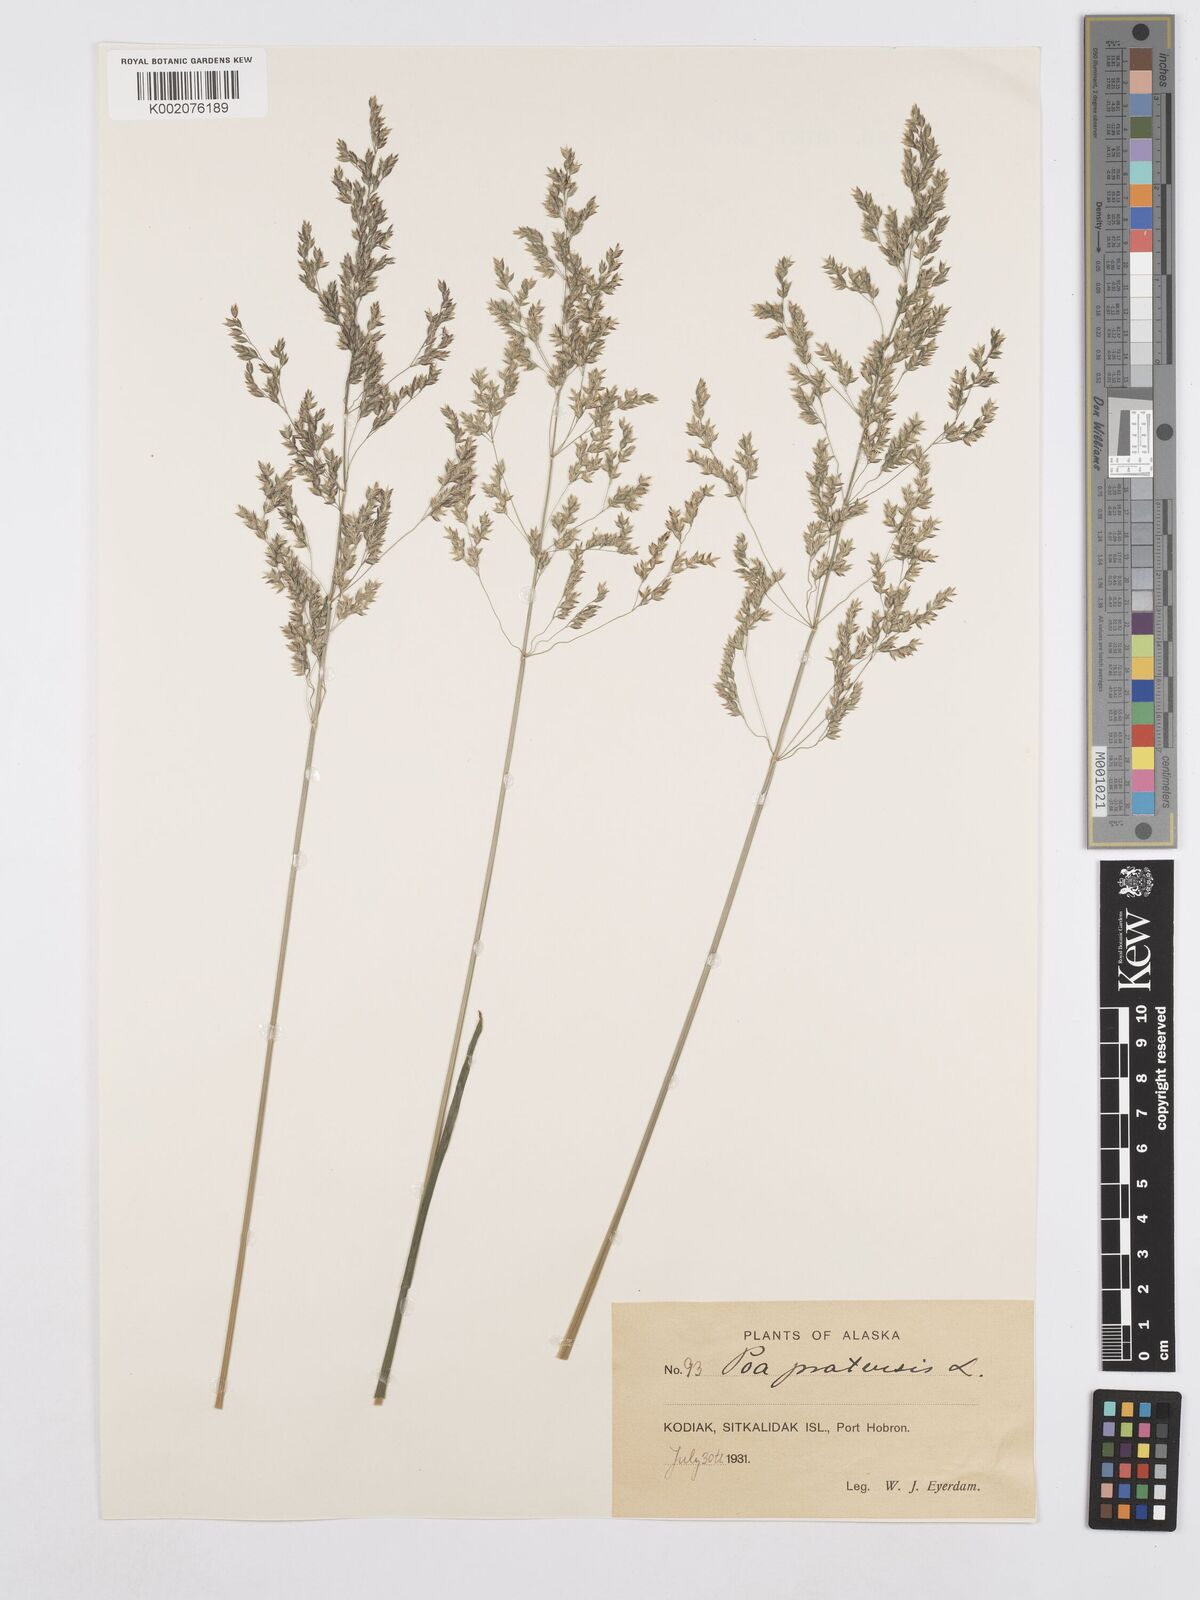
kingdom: Plantae
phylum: Tracheophyta
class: Liliopsida
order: Poales
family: Poaceae
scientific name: Poaceae
